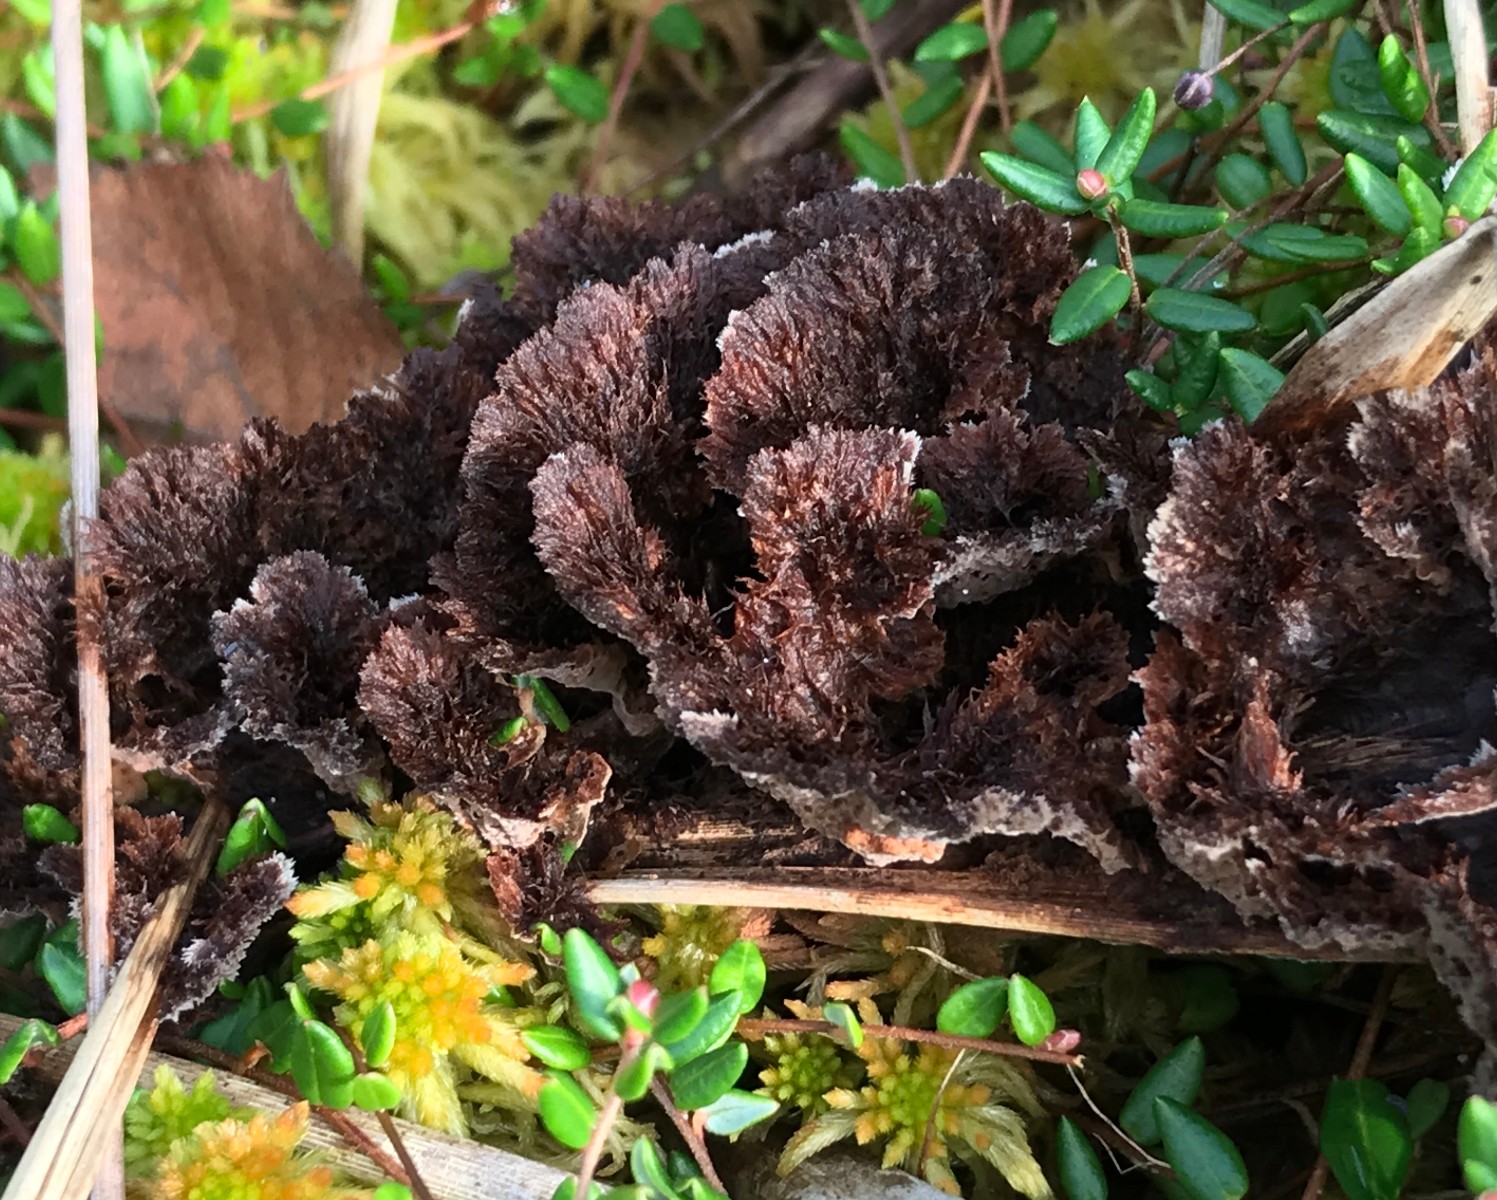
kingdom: Fungi
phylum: Basidiomycota
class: Agaricomycetes
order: Thelephorales
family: Thelephoraceae
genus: Thelephora
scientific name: Thelephora terrestris
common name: fliget frynsesvamp
